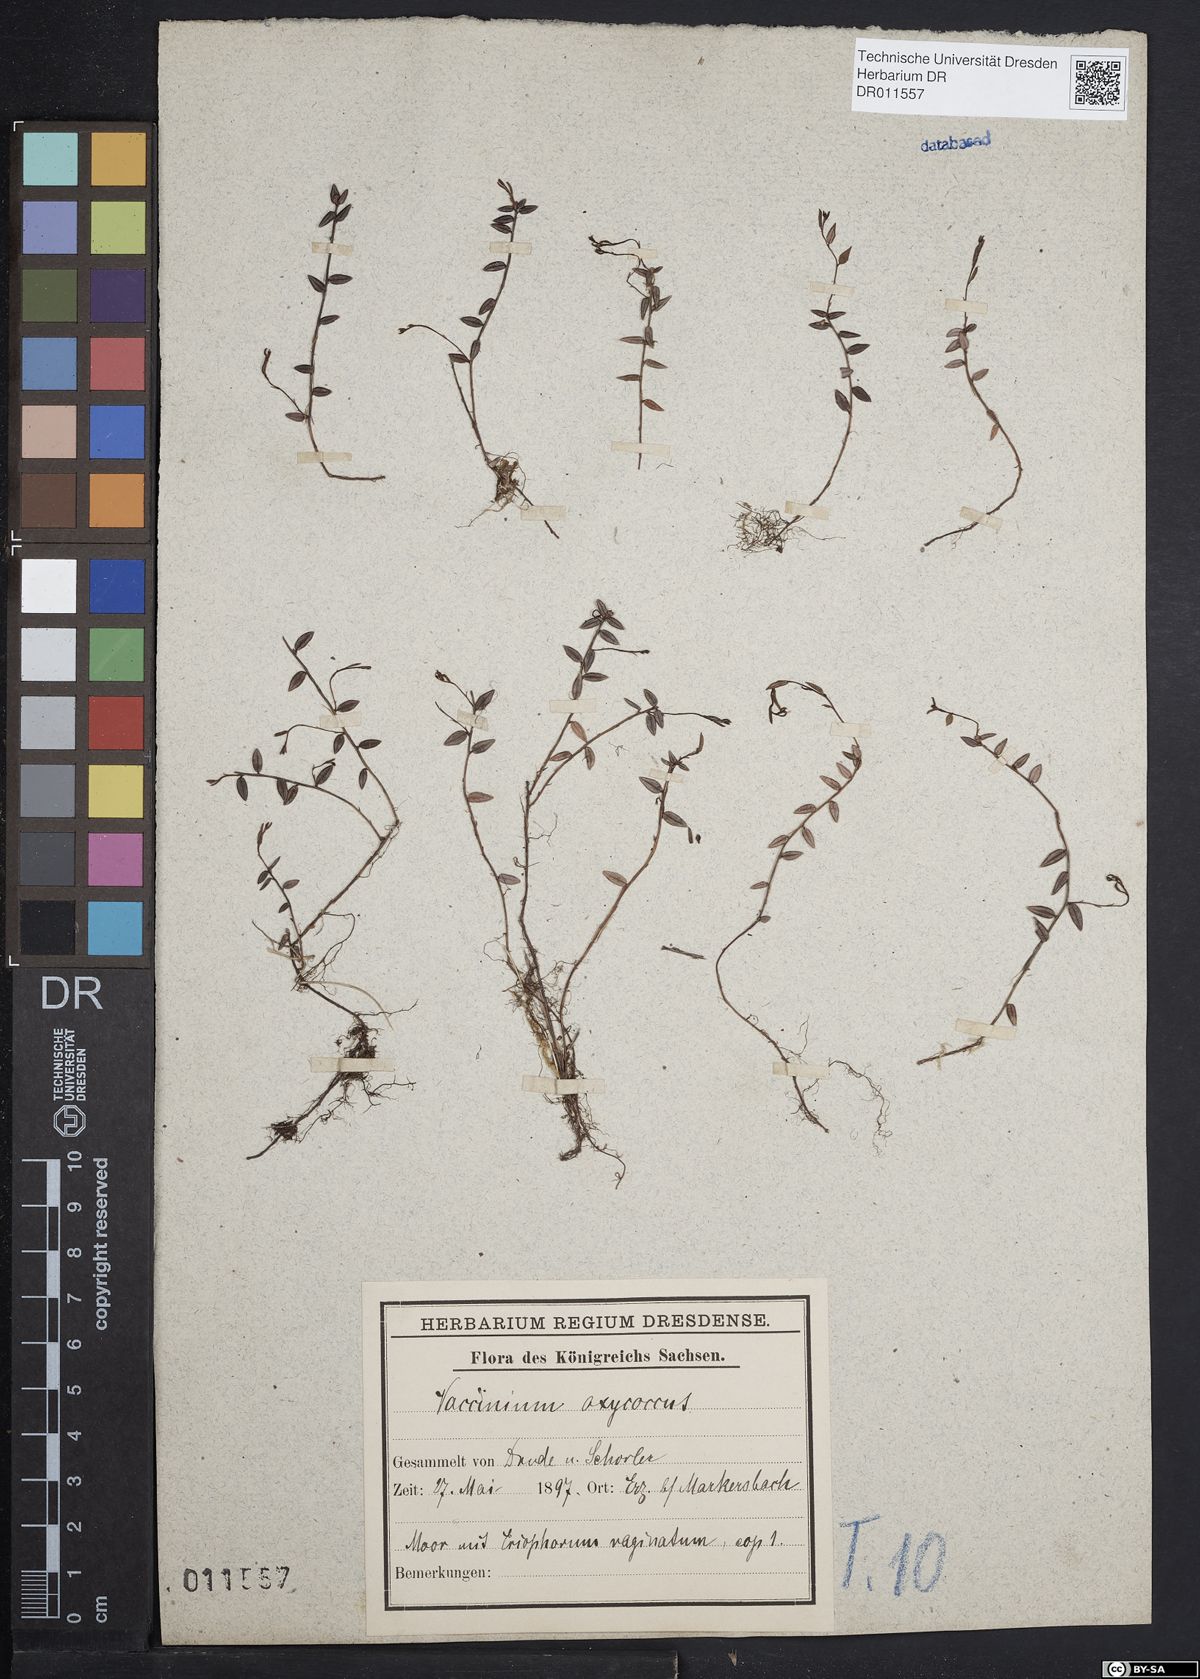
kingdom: Plantae
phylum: Tracheophyta
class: Magnoliopsida
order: Ericales
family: Ericaceae
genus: Vaccinium
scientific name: Vaccinium oxycoccos
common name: Cranberry
